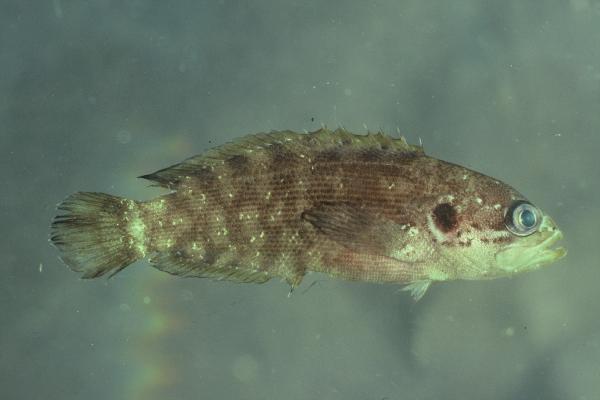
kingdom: Animalia
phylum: Chordata
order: Perciformes
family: Serranidae
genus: Pseudogramma
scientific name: Pseudogramma polyacantha
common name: Bold-spot soapfish
